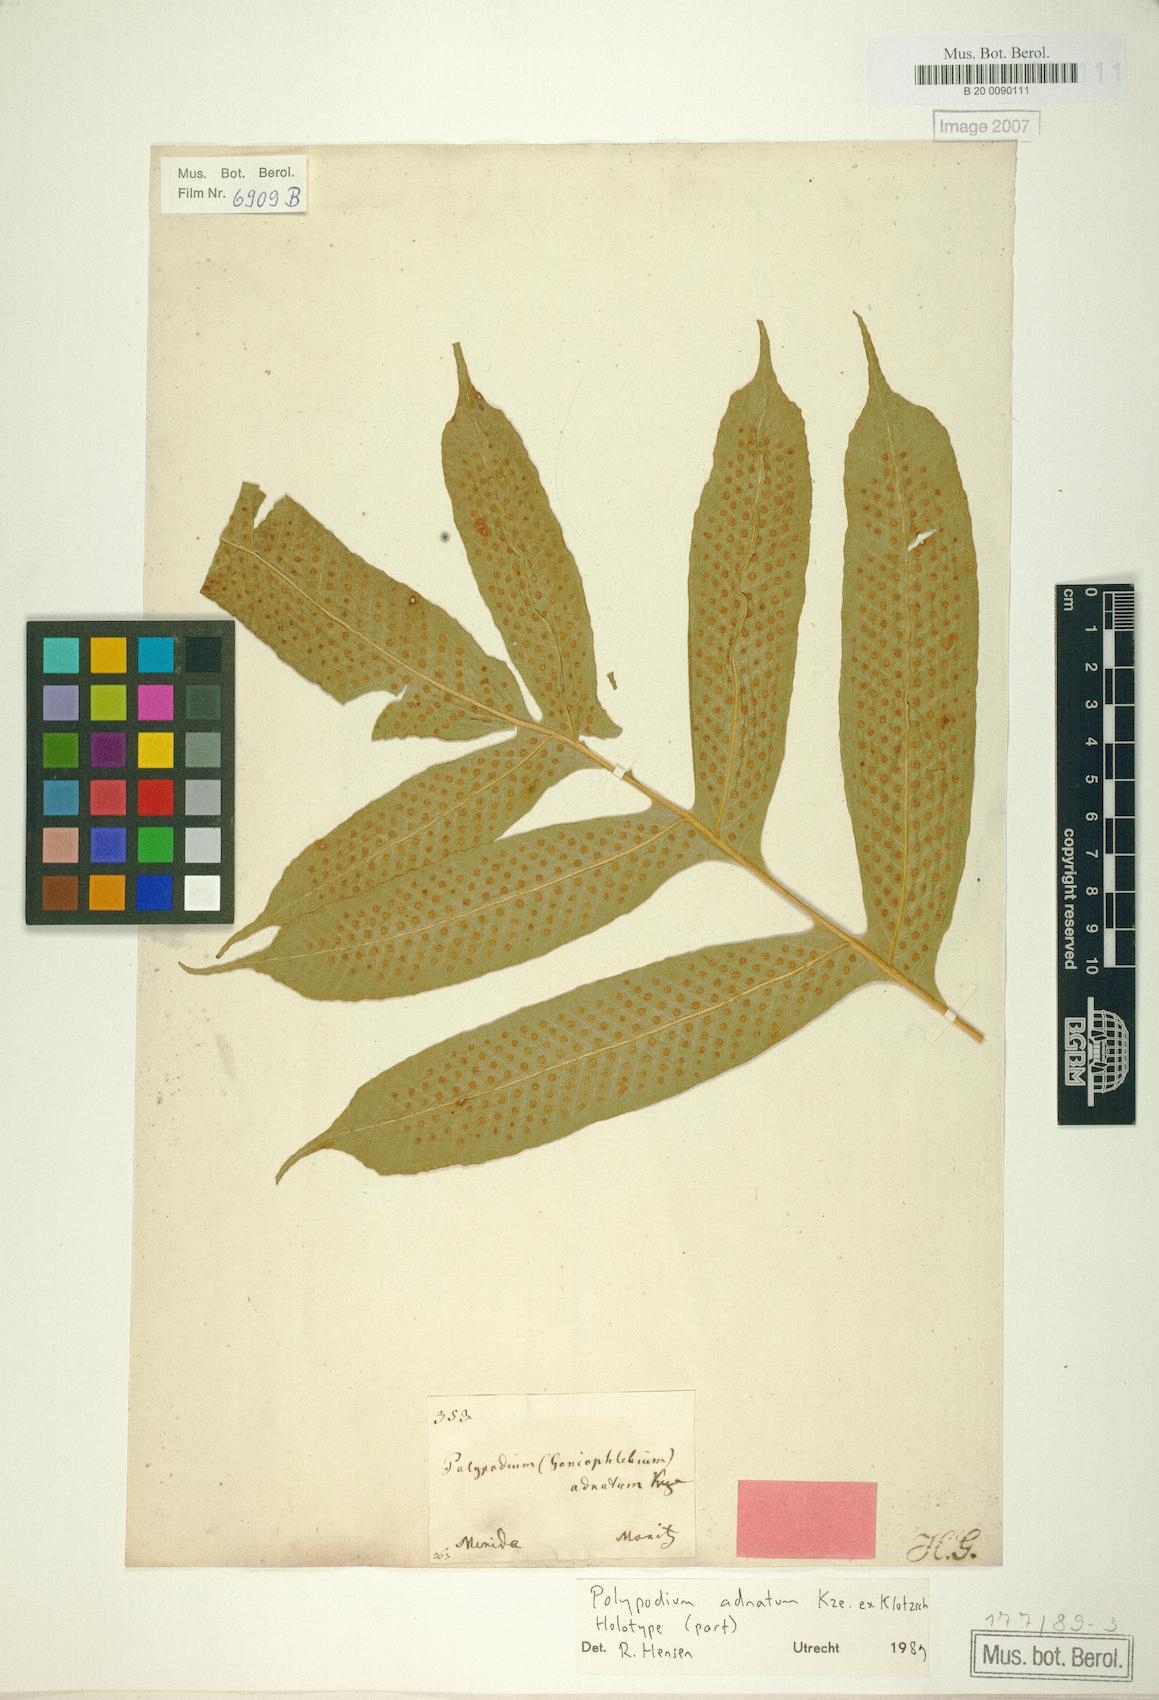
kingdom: Plantae
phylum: Tracheophyta
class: Polypodiopsida
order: Polypodiales
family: Polypodiaceae
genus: Serpocaulon
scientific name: Serpocaulon adnatum
